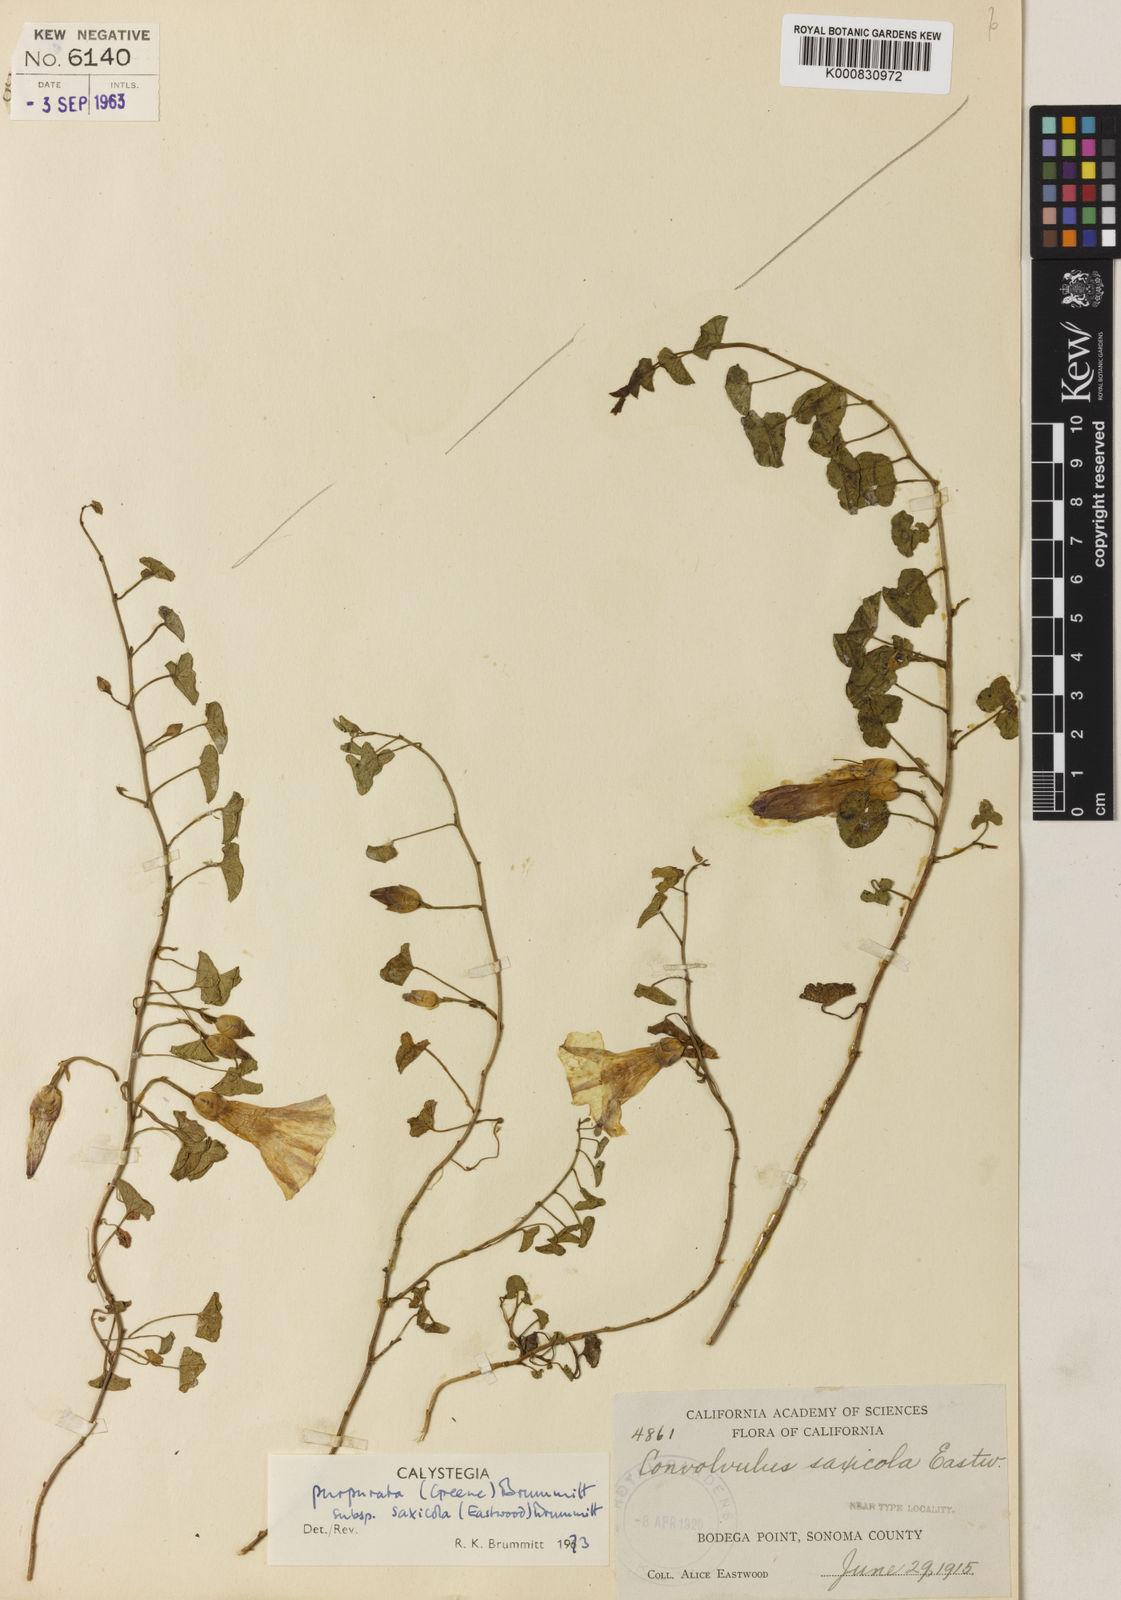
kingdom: Plantae
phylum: Tracheophyta
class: Magnoliopsida
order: Solanales
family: Convolvulaceae
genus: Calystegia
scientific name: Calystegia purpurata
